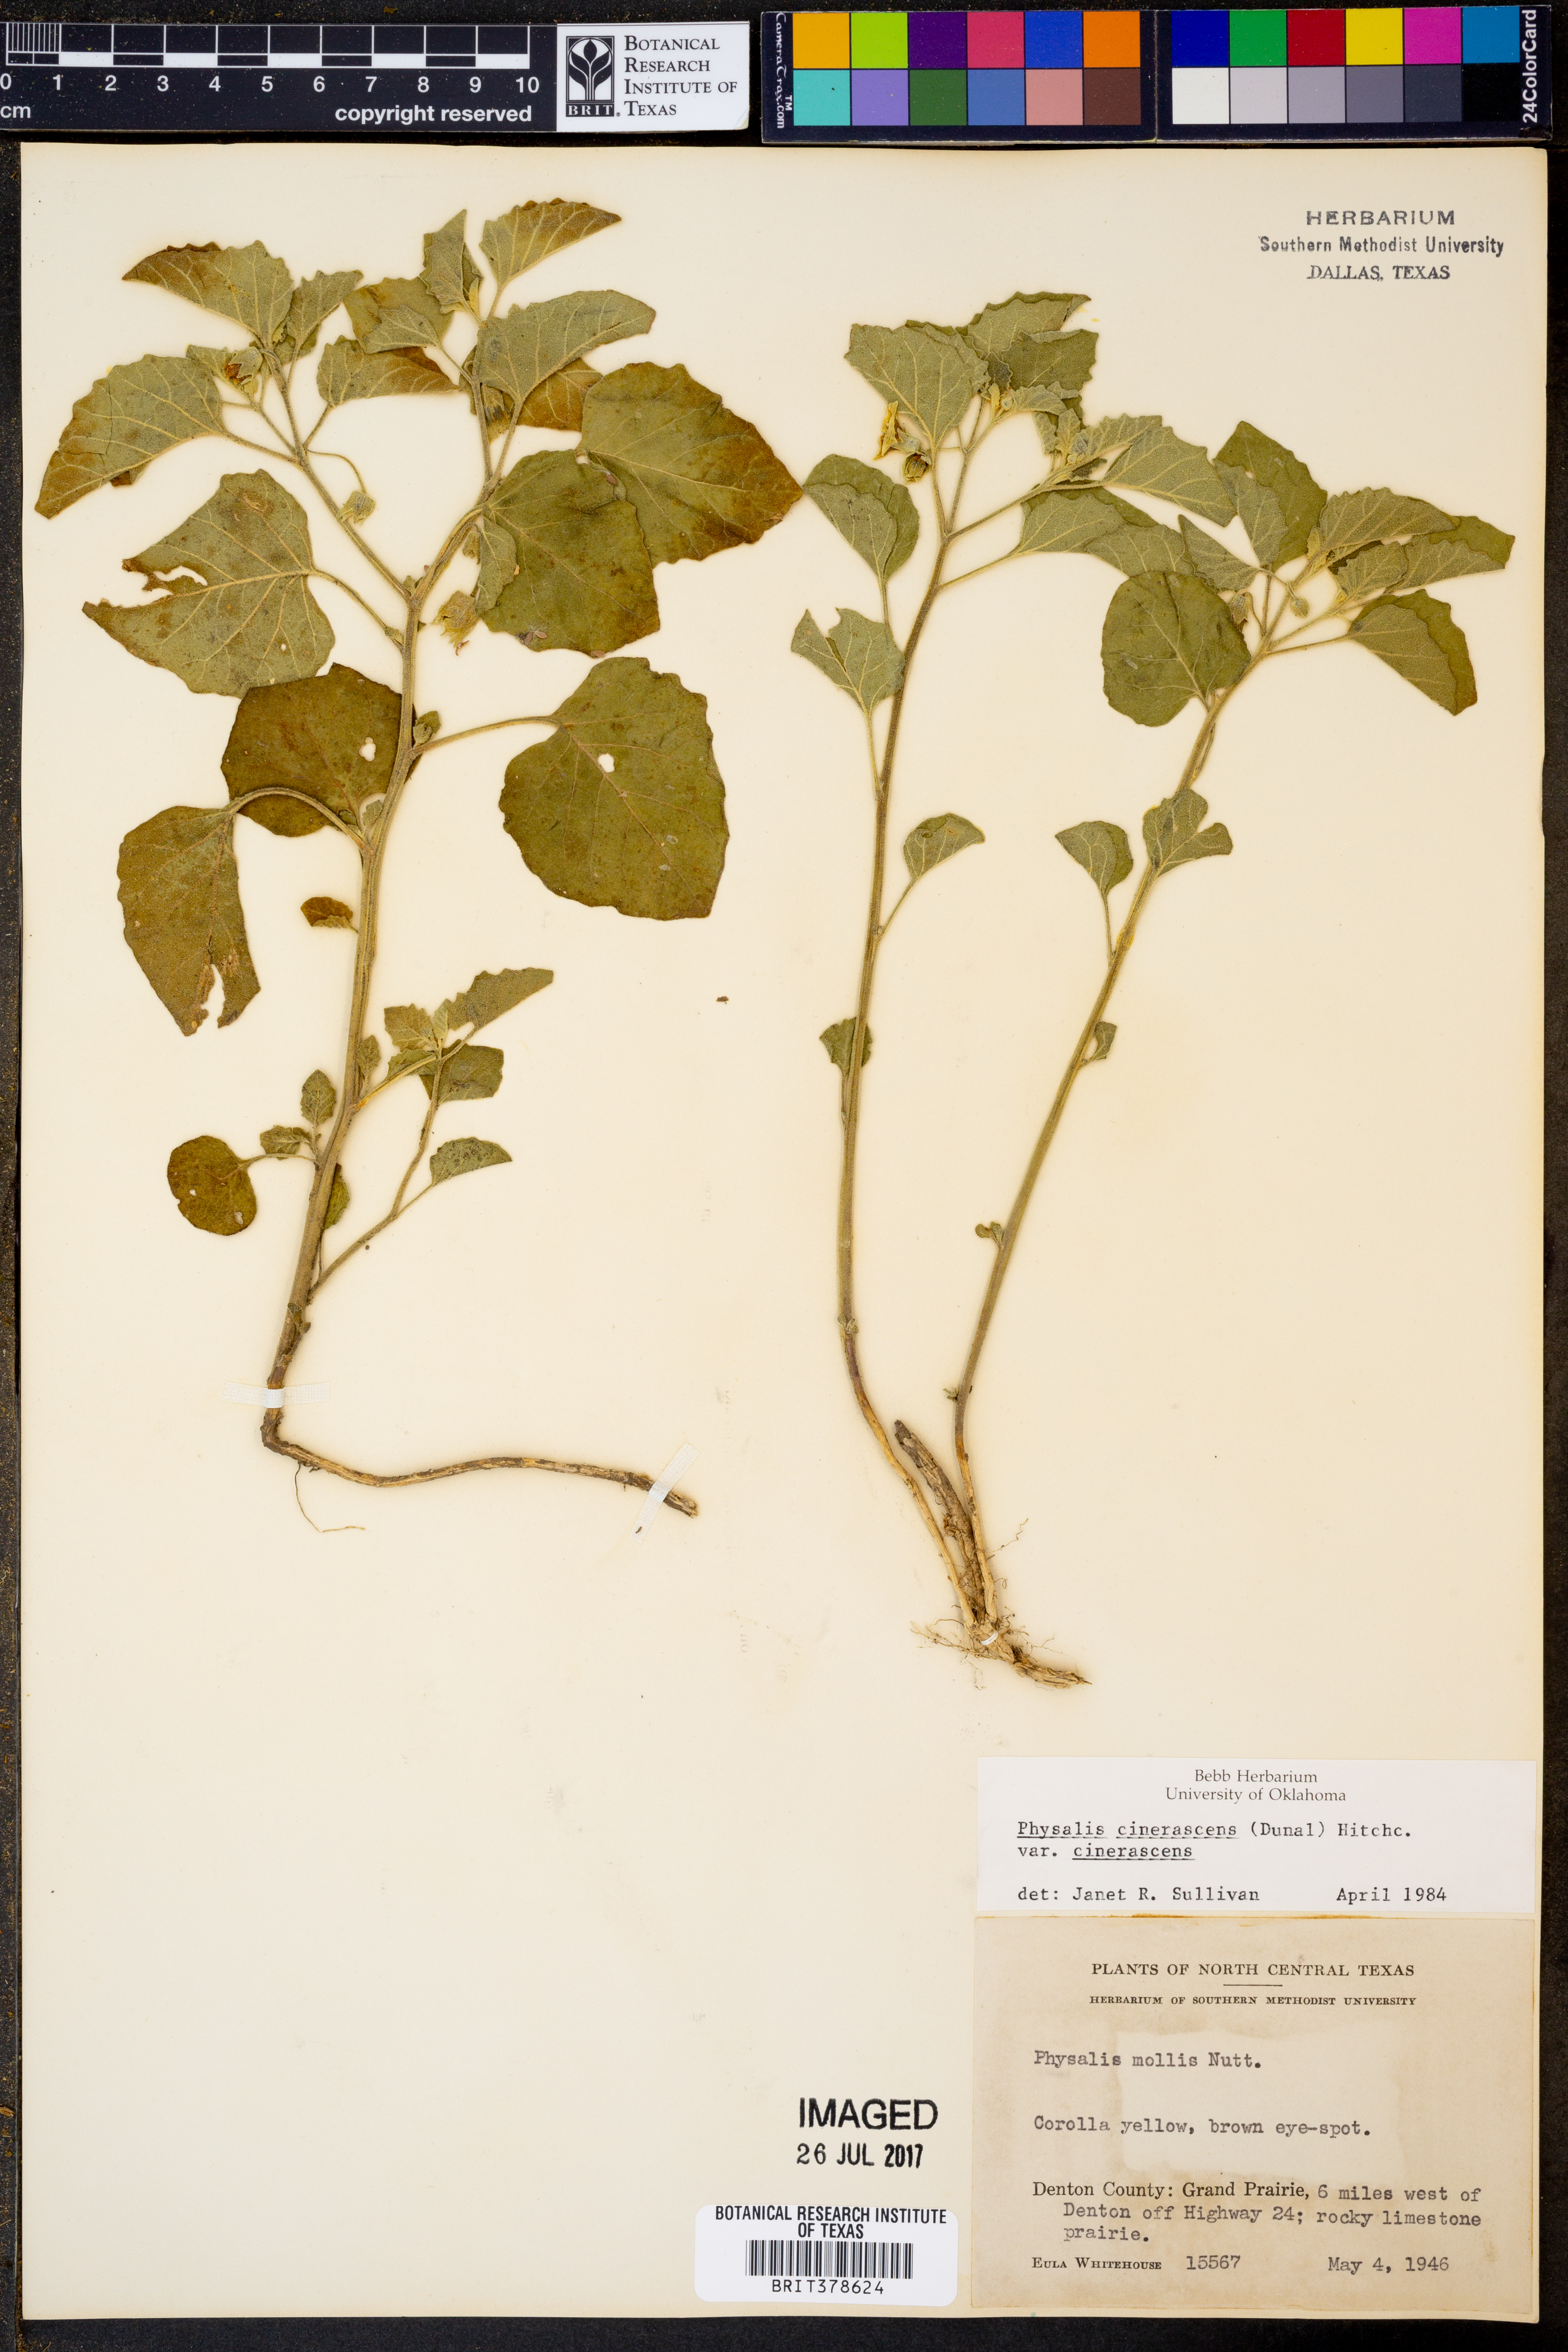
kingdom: Plantae
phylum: Tracheophyta
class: Magnoliopsida
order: Solanales
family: Solanaceae
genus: Physalis
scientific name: Physalis cinerascens
